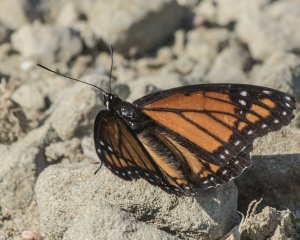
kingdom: Animalia
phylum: Arthropoda
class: Insecta
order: Lepidoptera
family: Nymphalidae
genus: Limenitis
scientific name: Limenitis archippus
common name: Viceroy
